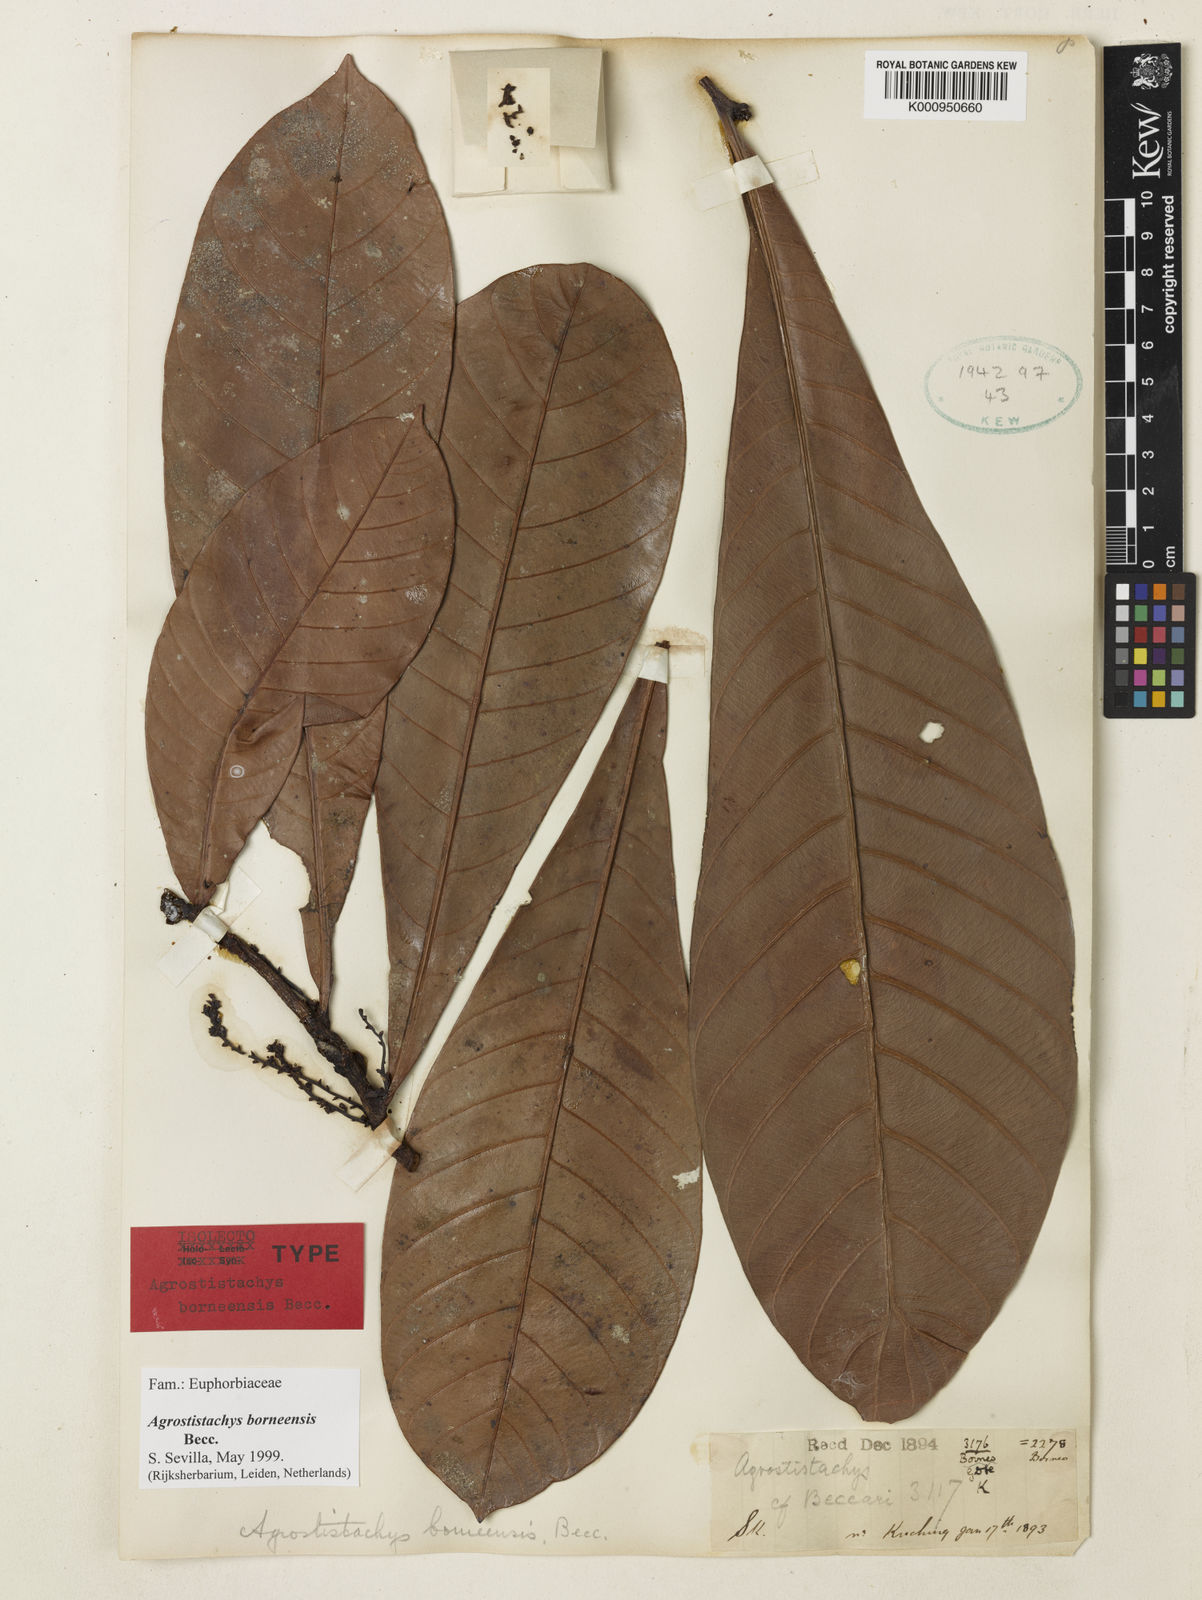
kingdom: Plantae
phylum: Tracheophyta
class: Magnoliopsida
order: Malpighiales
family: Euphorbiaceae
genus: Agrostistachys
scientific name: Agrostistachys
